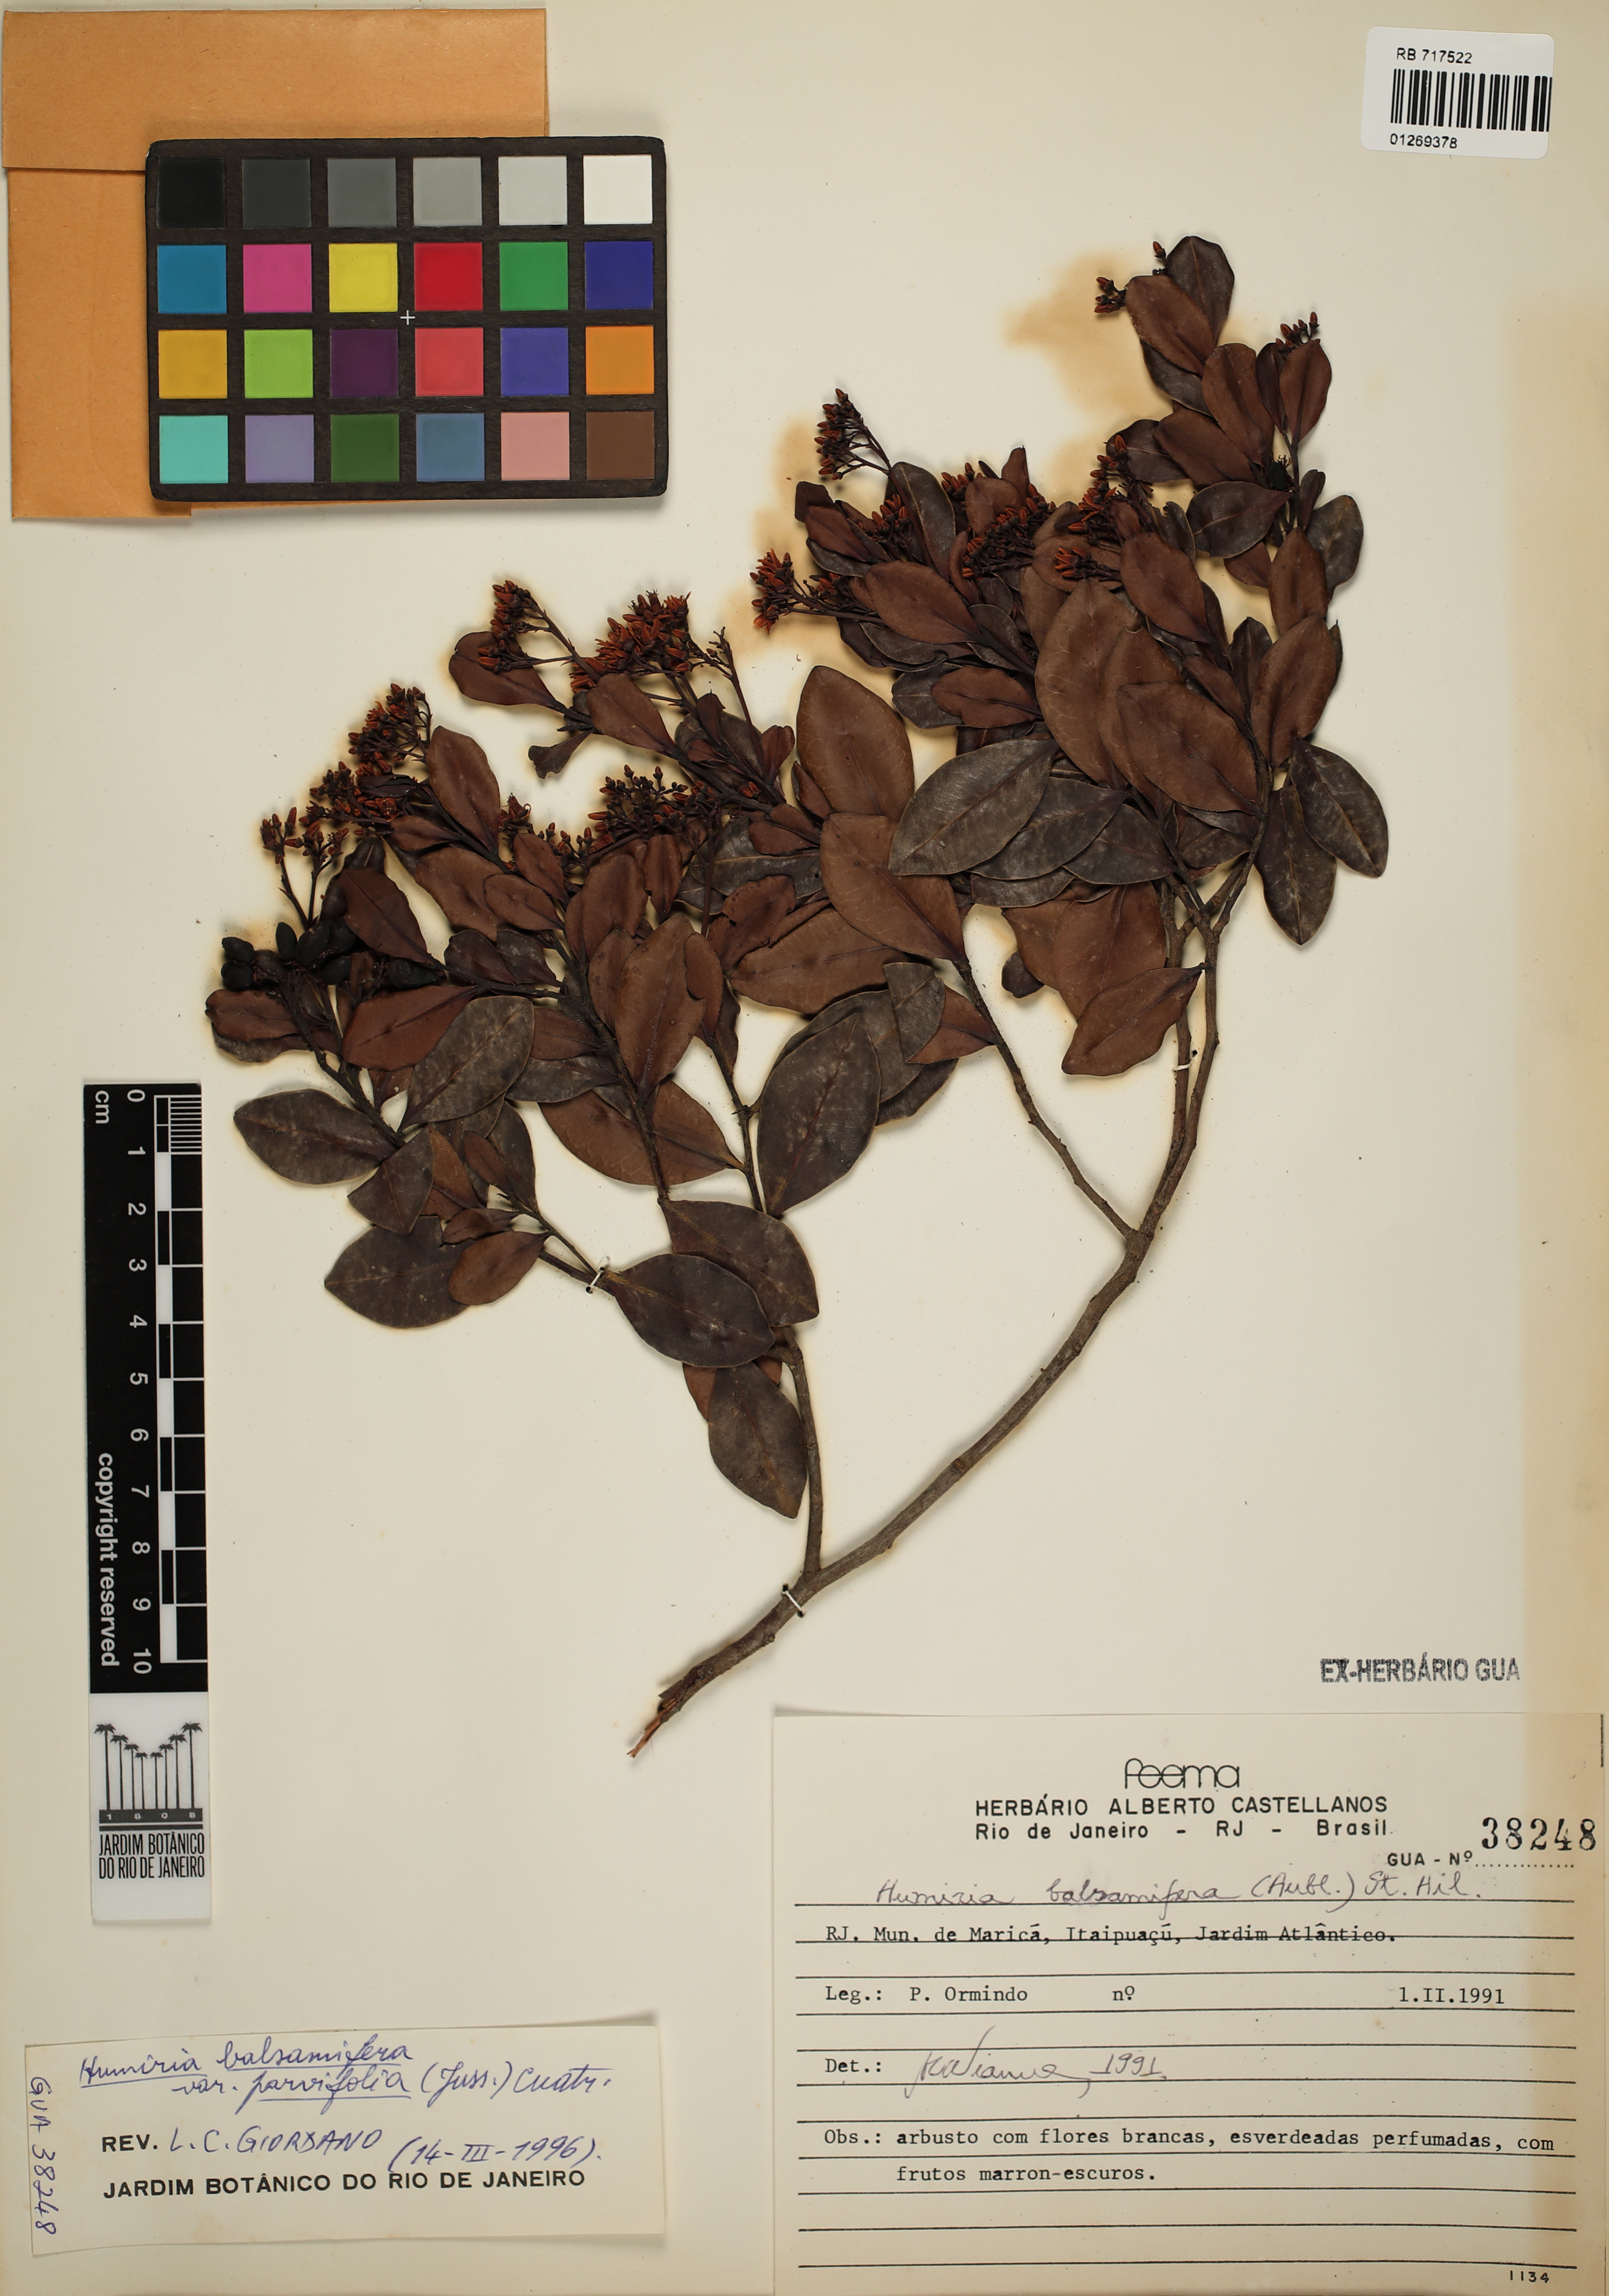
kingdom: Plantae
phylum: Tracheophyta
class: Magnoliopsida
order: Malpighiales
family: Humiriaceae
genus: Humiria
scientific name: Humiria parvifolia
